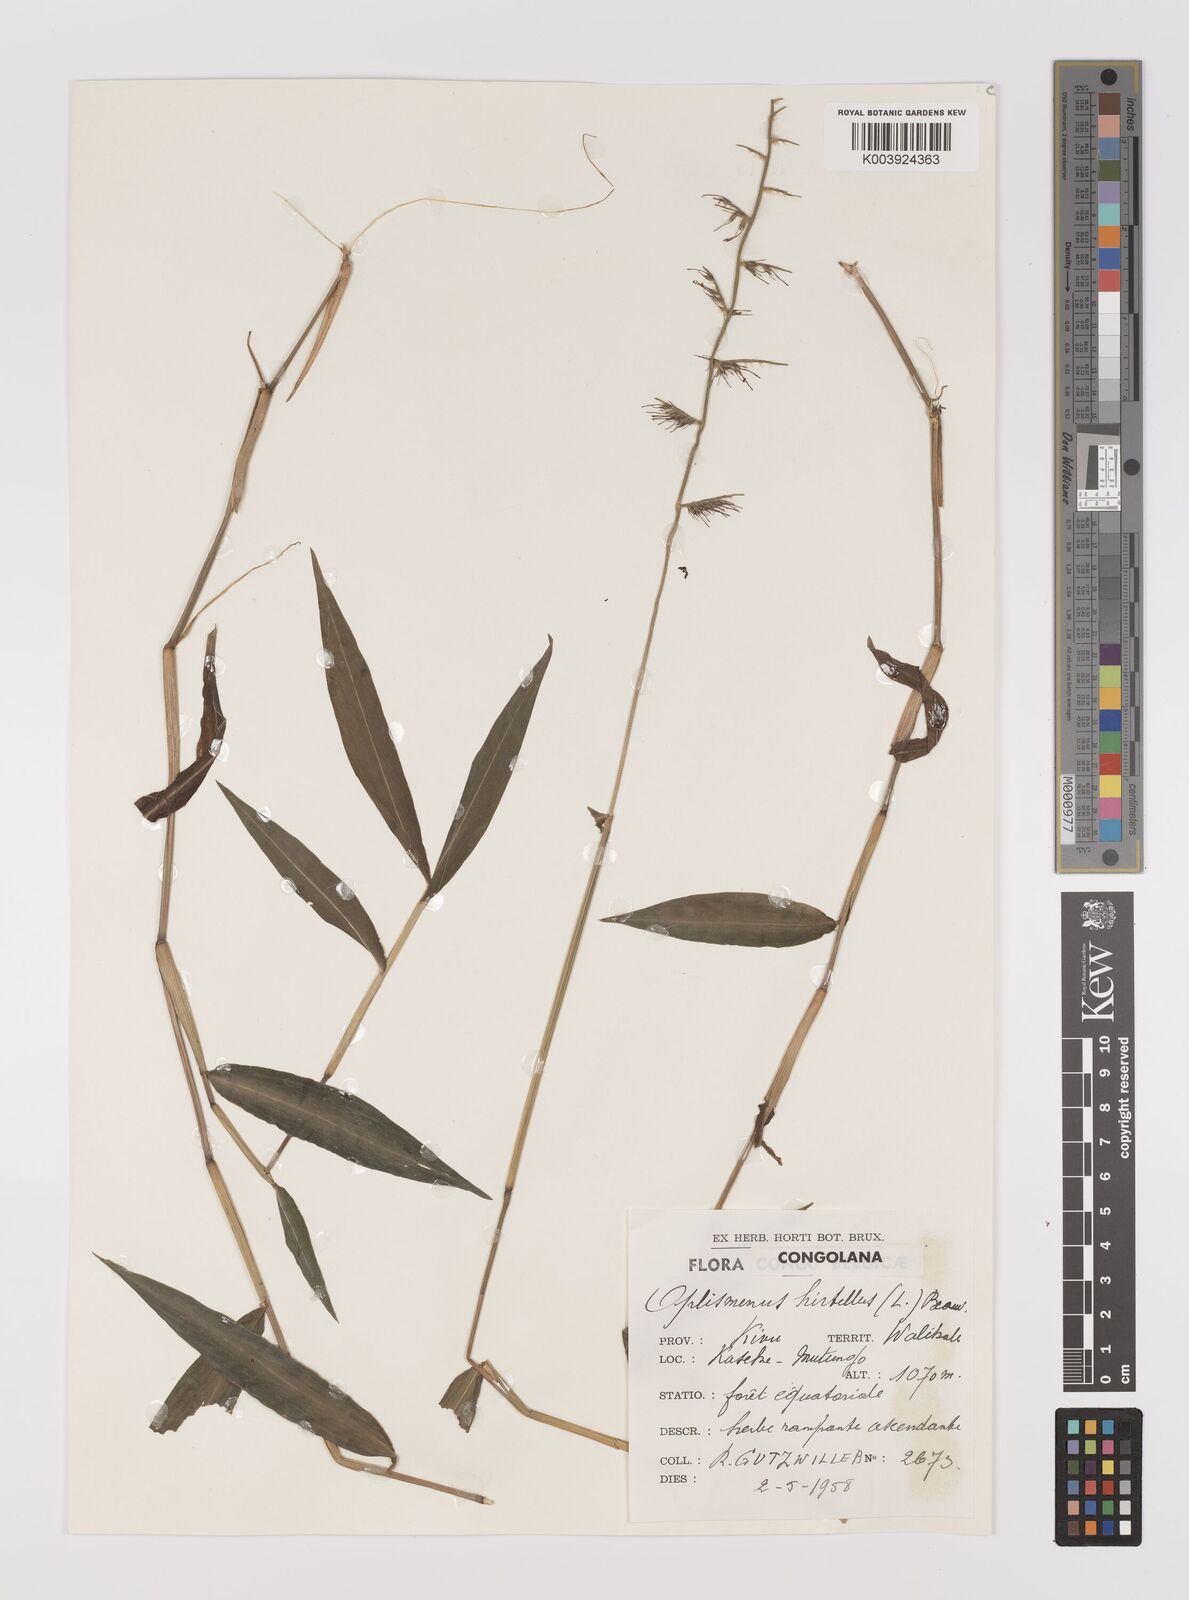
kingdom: Plantae
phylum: Tracheophyta
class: Liliopsida
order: Poales
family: Poaceae
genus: Oplismenus
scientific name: Oplismenus hirtellus
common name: Basketgrass
